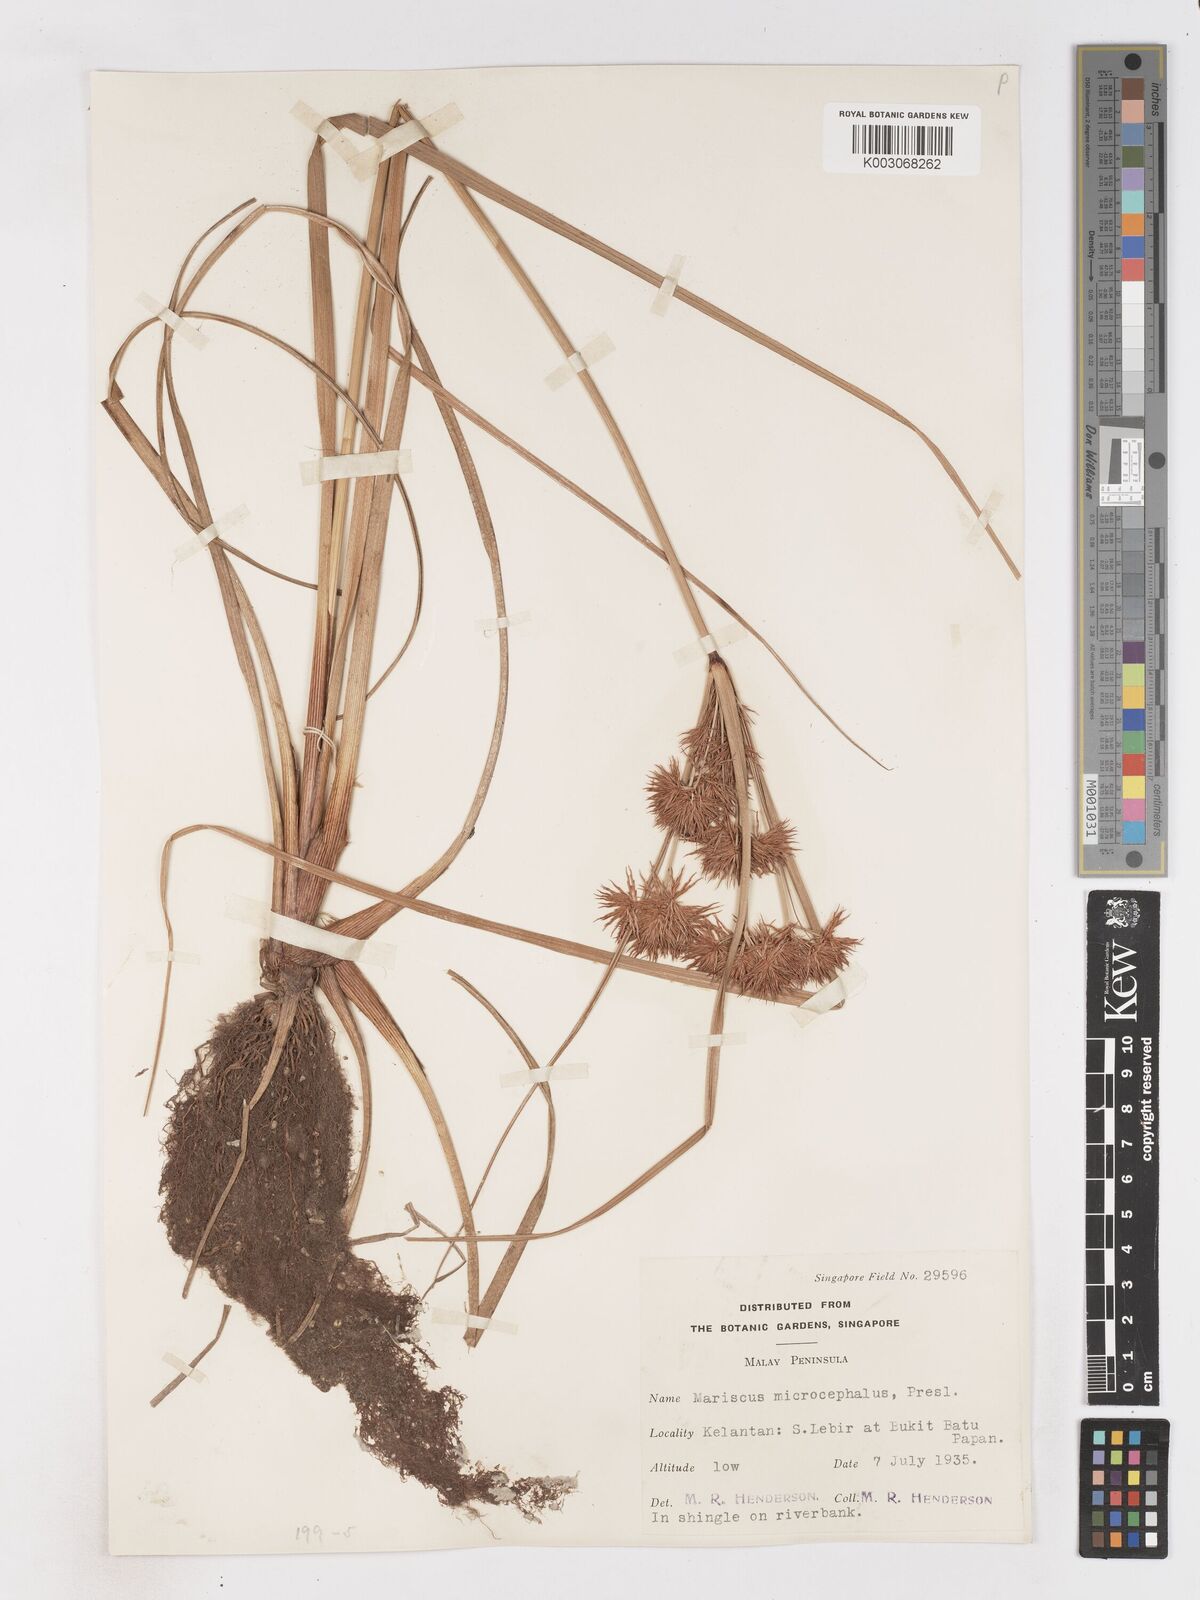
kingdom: Plantae
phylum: Tracheophyta
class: Liliopsida
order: Poales
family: Cyperaceae
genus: Cyperus
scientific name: Cyperus compactus
